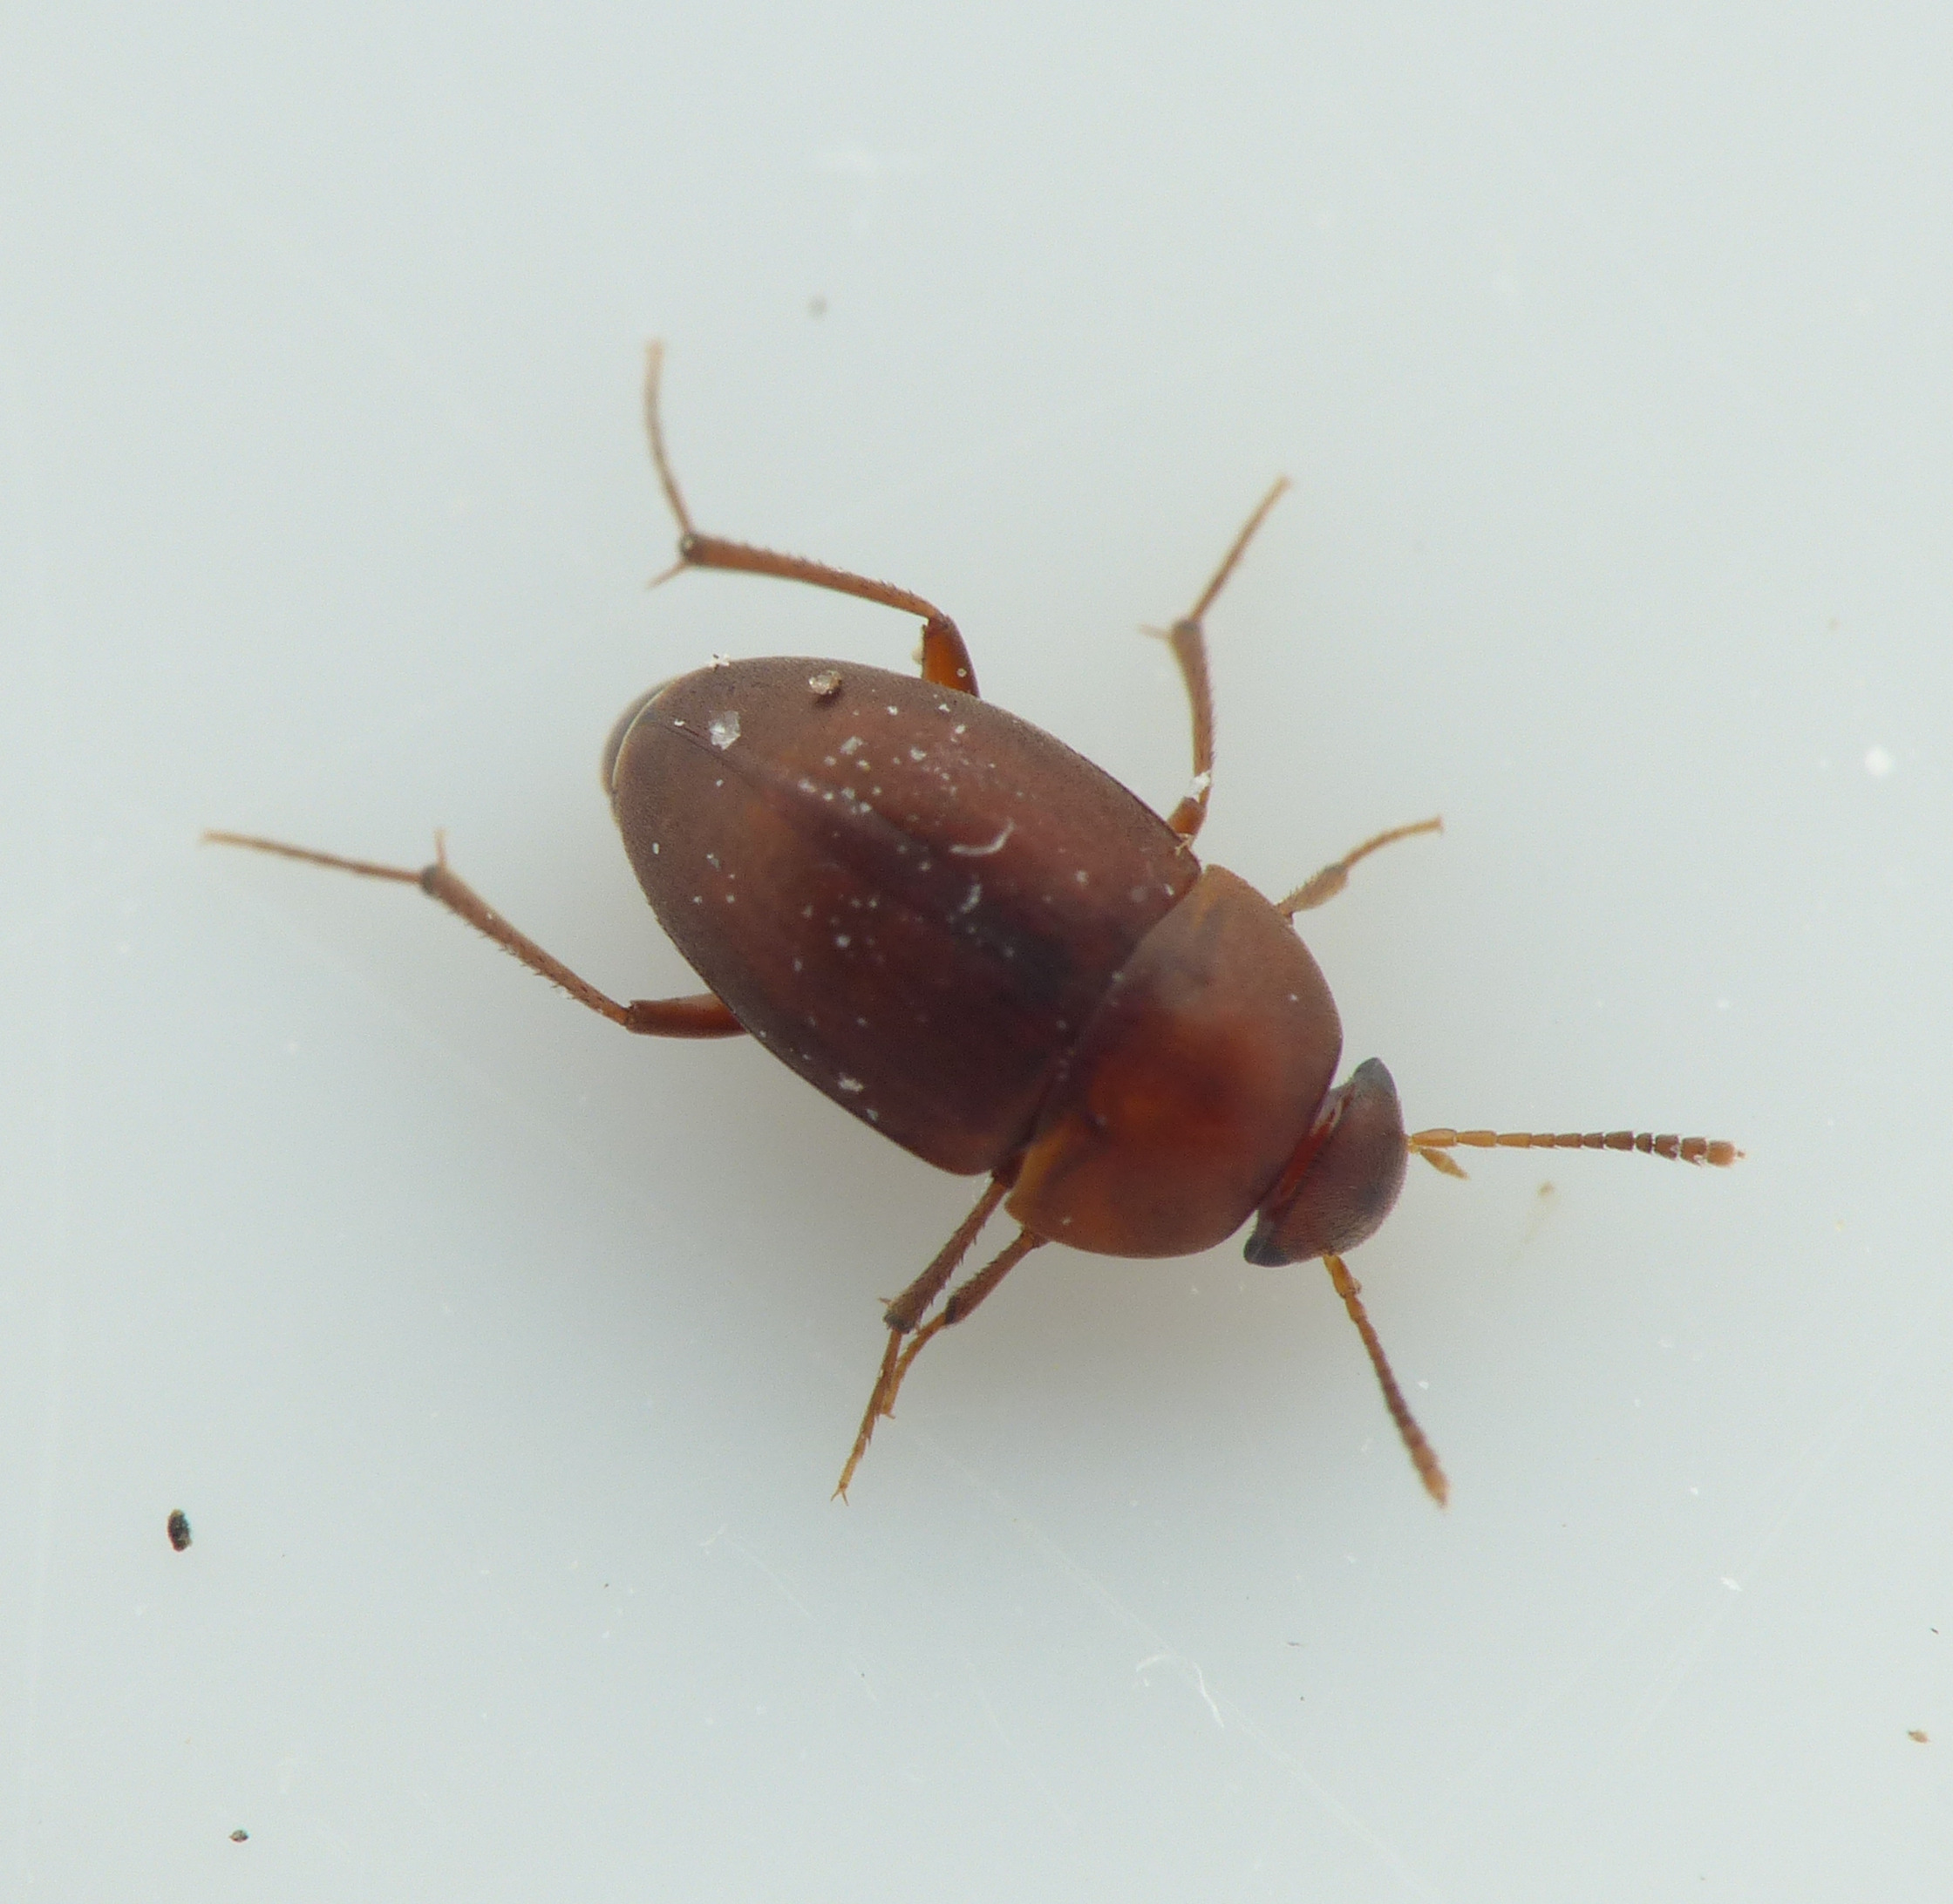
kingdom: Animalia
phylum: Arthropoda
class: Insecta
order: Coleoptera
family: Leiodidae
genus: Nargus
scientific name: Nargus velox
